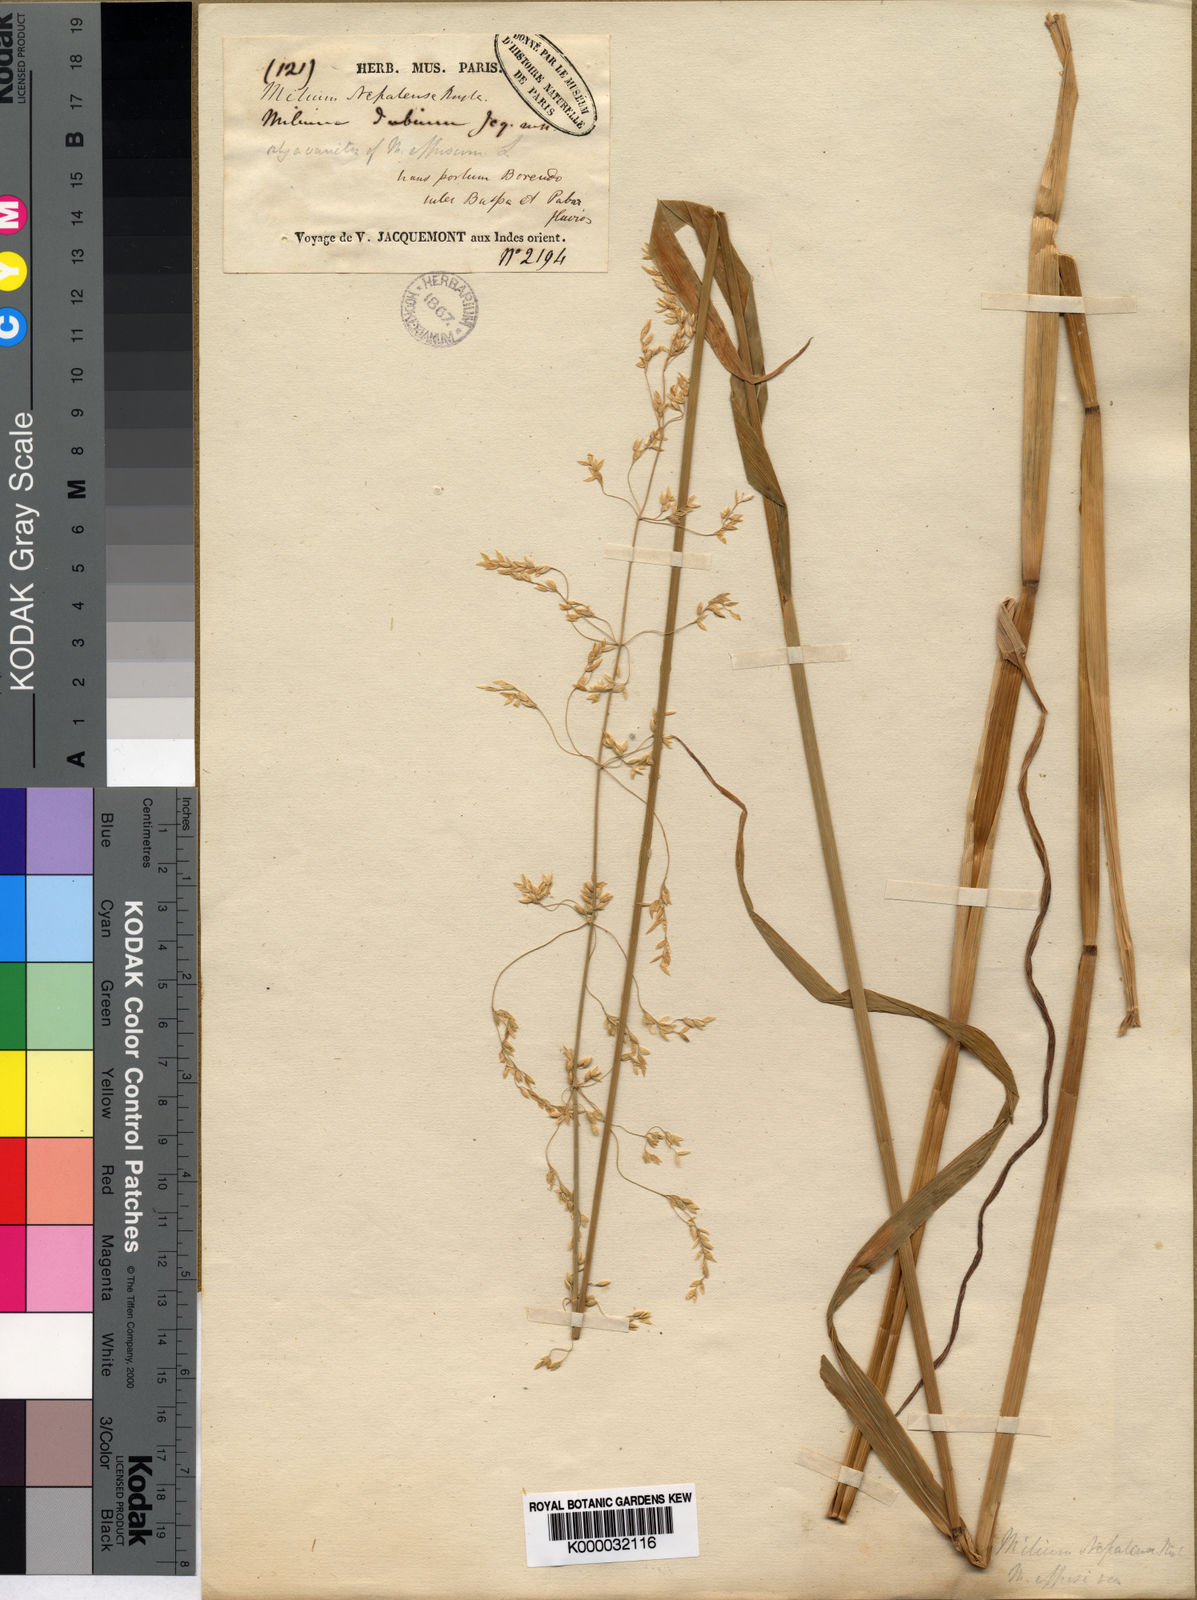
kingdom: Plantae
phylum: Tracheophyta
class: Liliopsida
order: Poales
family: Poaceae
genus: Milium
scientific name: Milium effusum
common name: Wood millet
